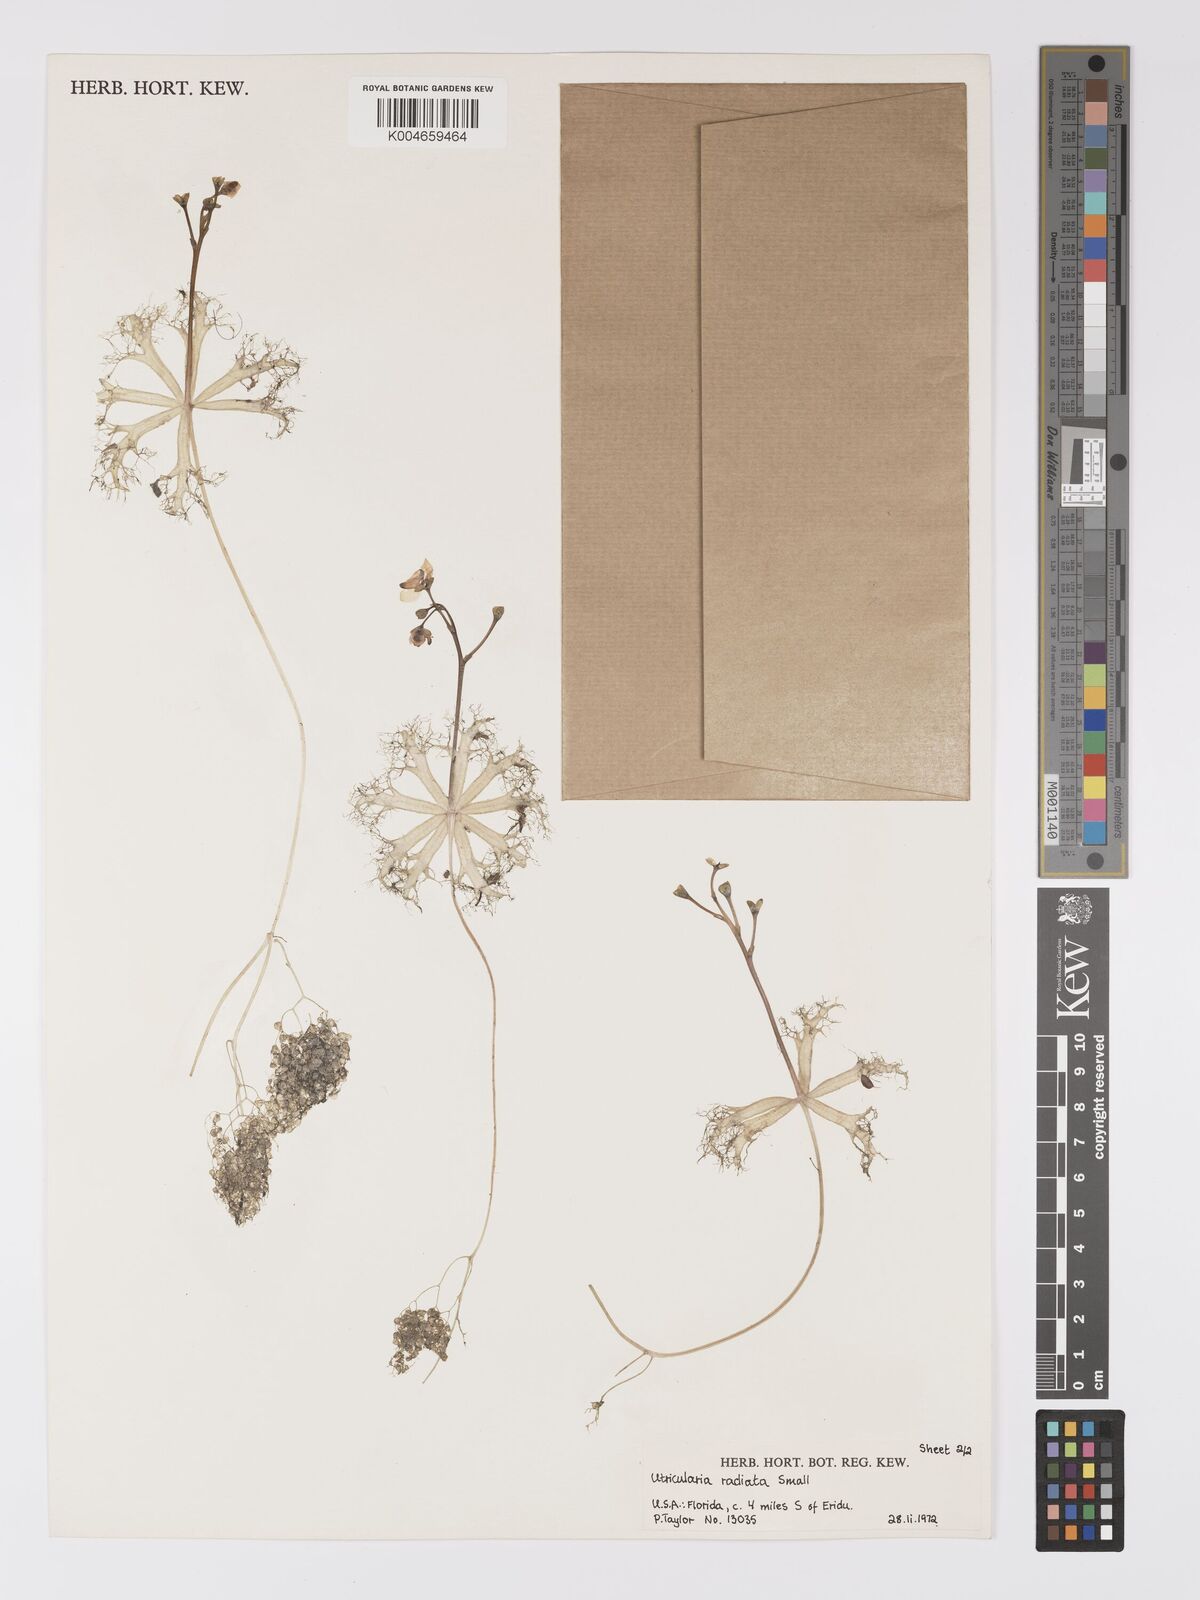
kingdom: Plantae
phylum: Tracheophyta
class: Magnoliopsida
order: Lamiales
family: Lentibulariaceae
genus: Utricularia
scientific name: Utricularia radiata
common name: Floating bladderwort
